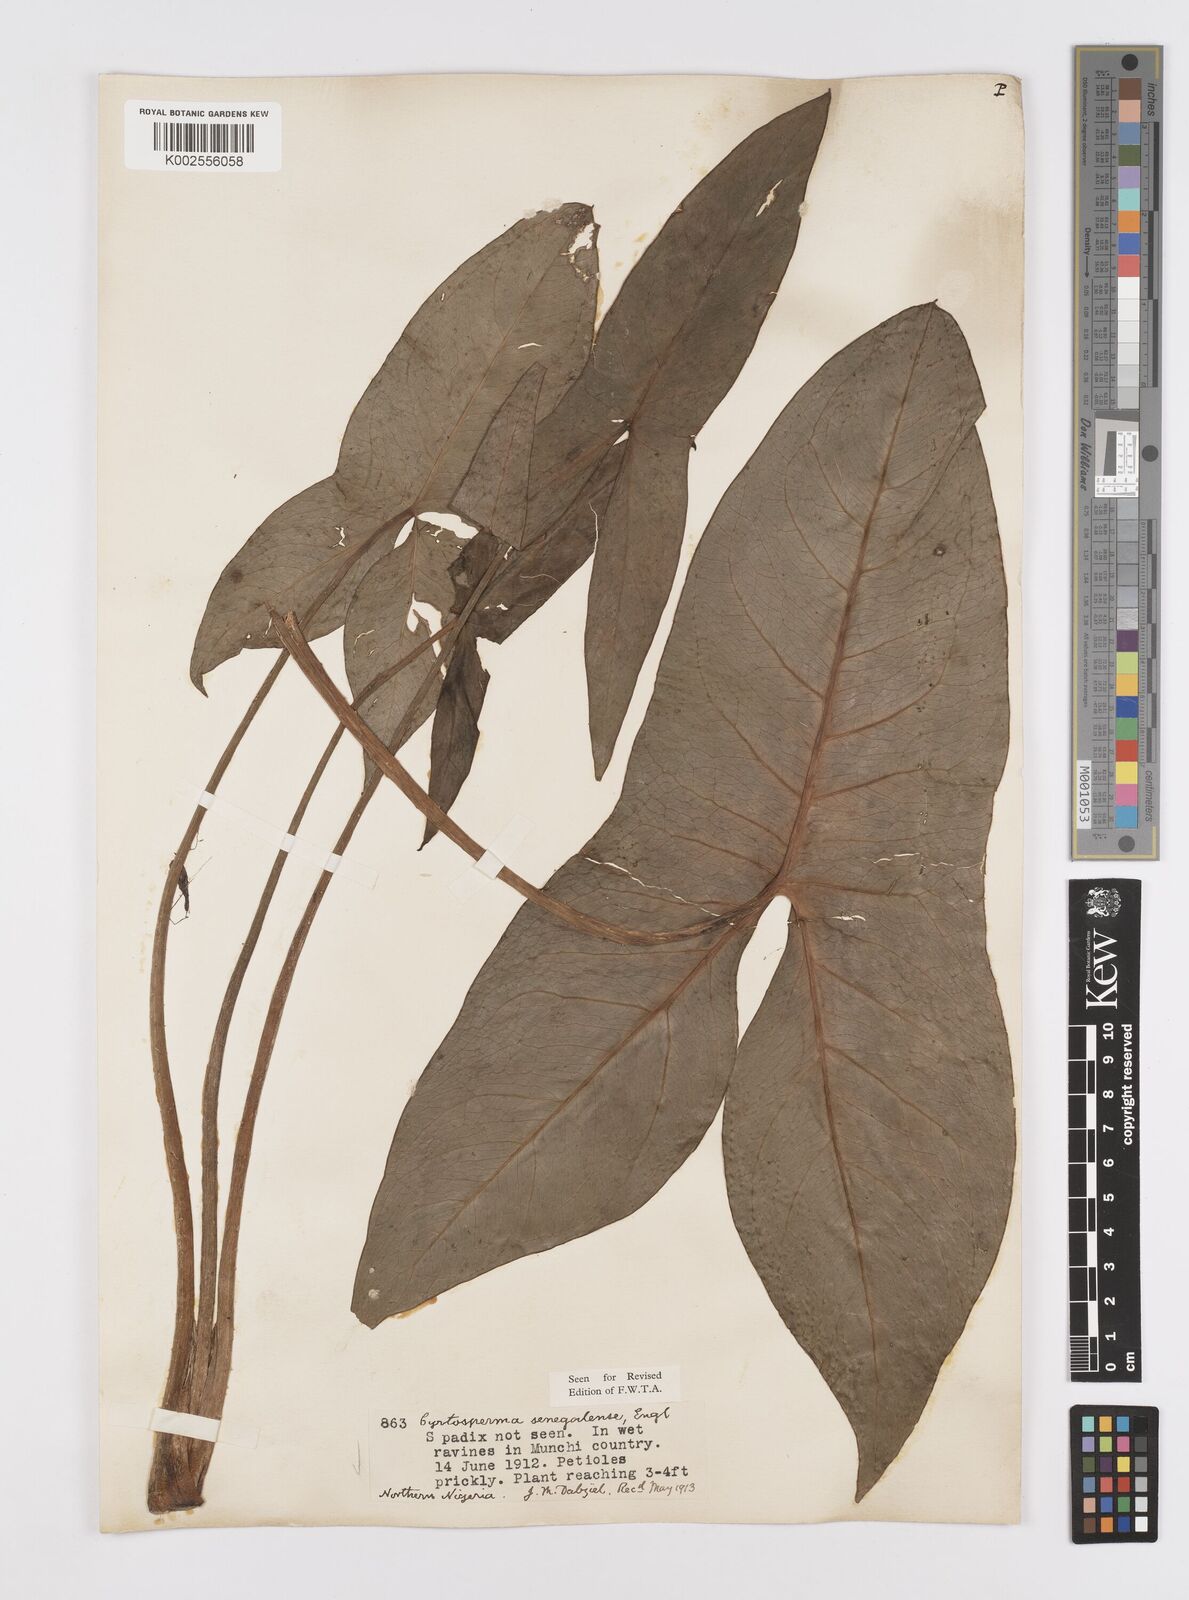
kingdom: Plantae
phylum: Tracheophyta
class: Liliopsida
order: Alismatales
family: Araceae
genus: Lasimorpha
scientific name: Lasimorpha senegalensis
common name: Swamp arum
